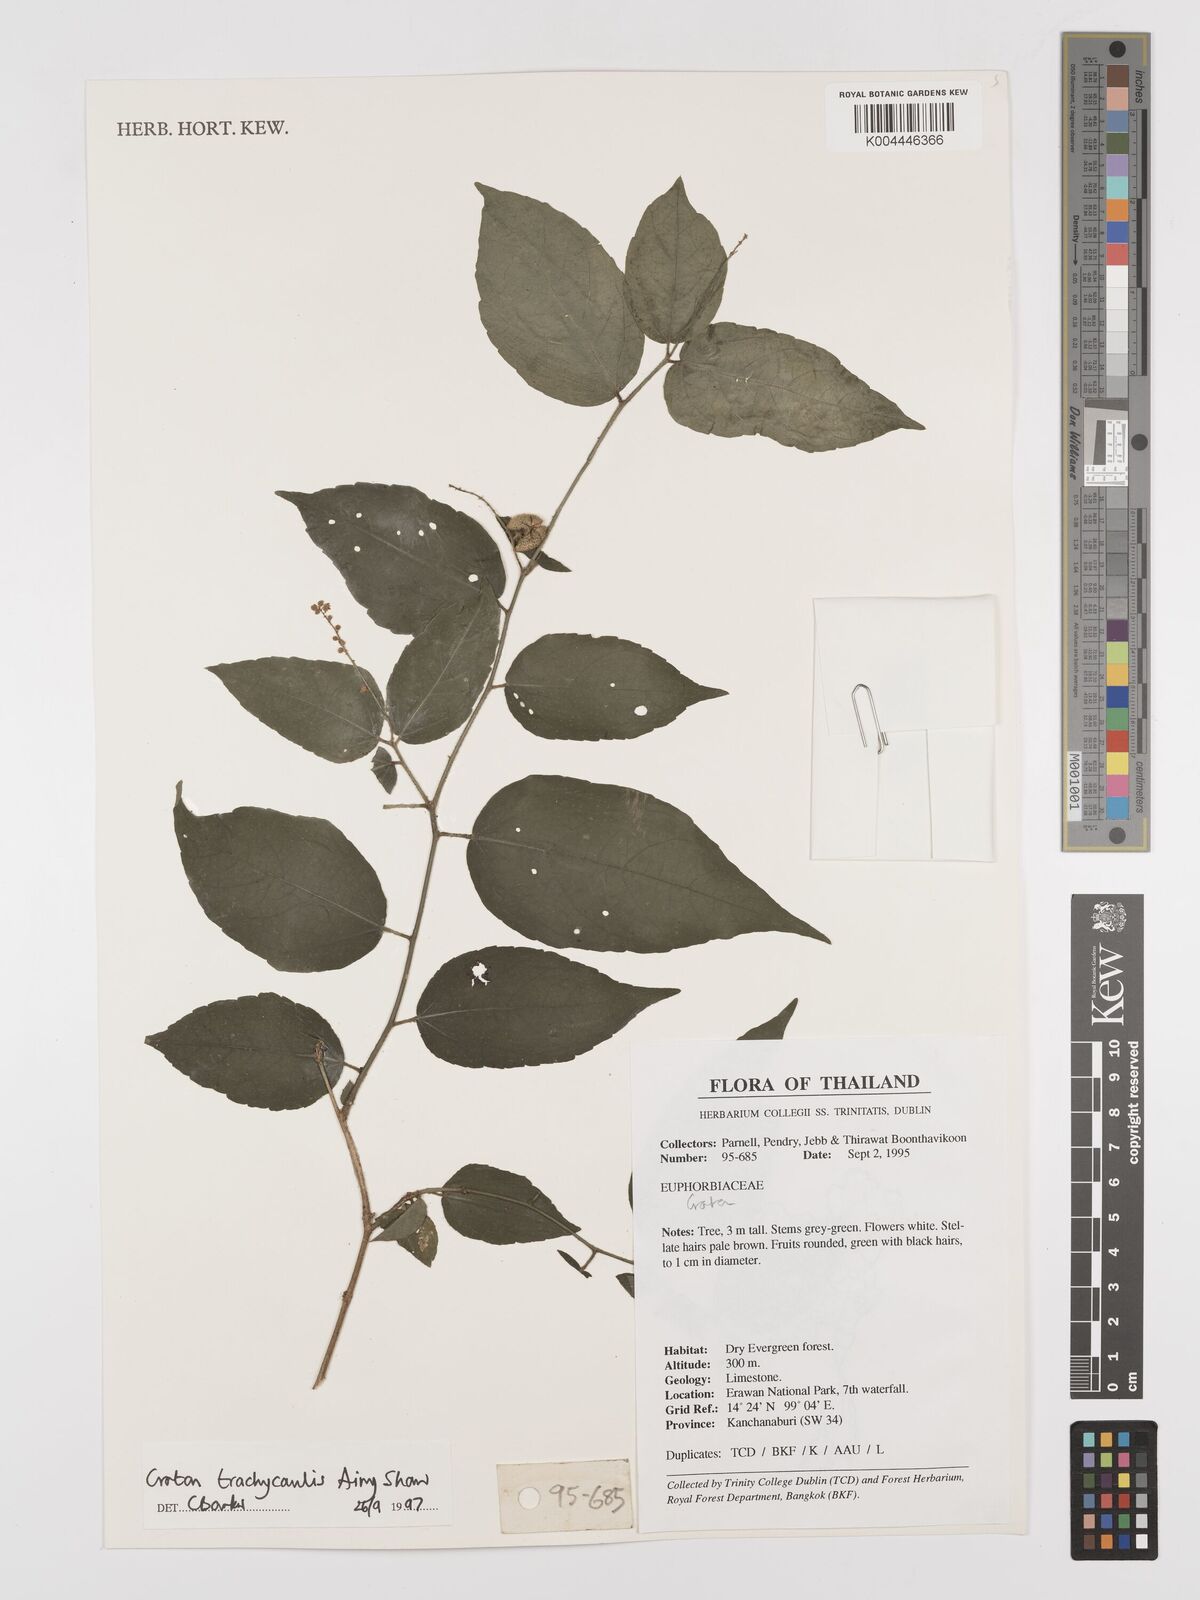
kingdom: Plantae
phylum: Tracheophyta
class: Magnoliopsida
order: Malpighiales
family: Euphorbiaceae
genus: Croton
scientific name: Croton lachnocarpus
